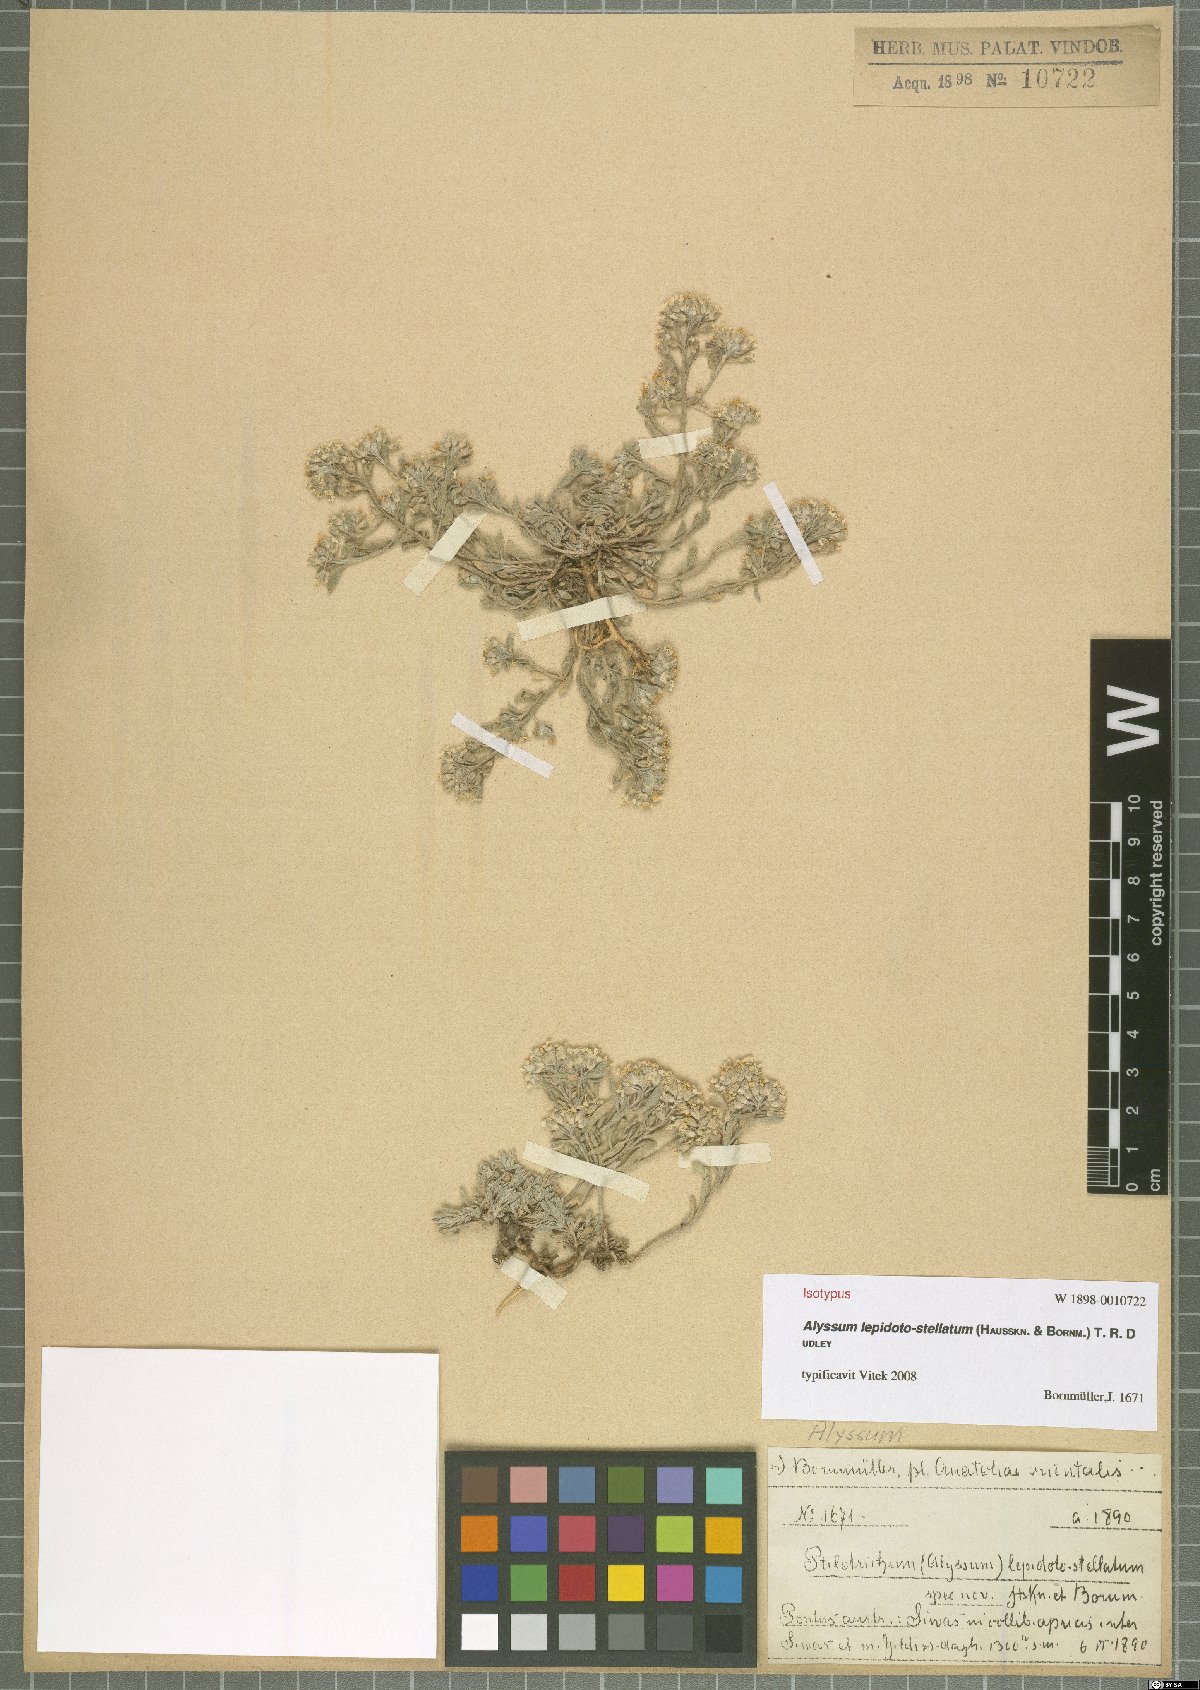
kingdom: Plantae
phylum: Tracheophyta
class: Magnoliopsida
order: Brassicales
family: Brassicaceae
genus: Alyssum
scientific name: Alyssum lepidoto-stellatum
